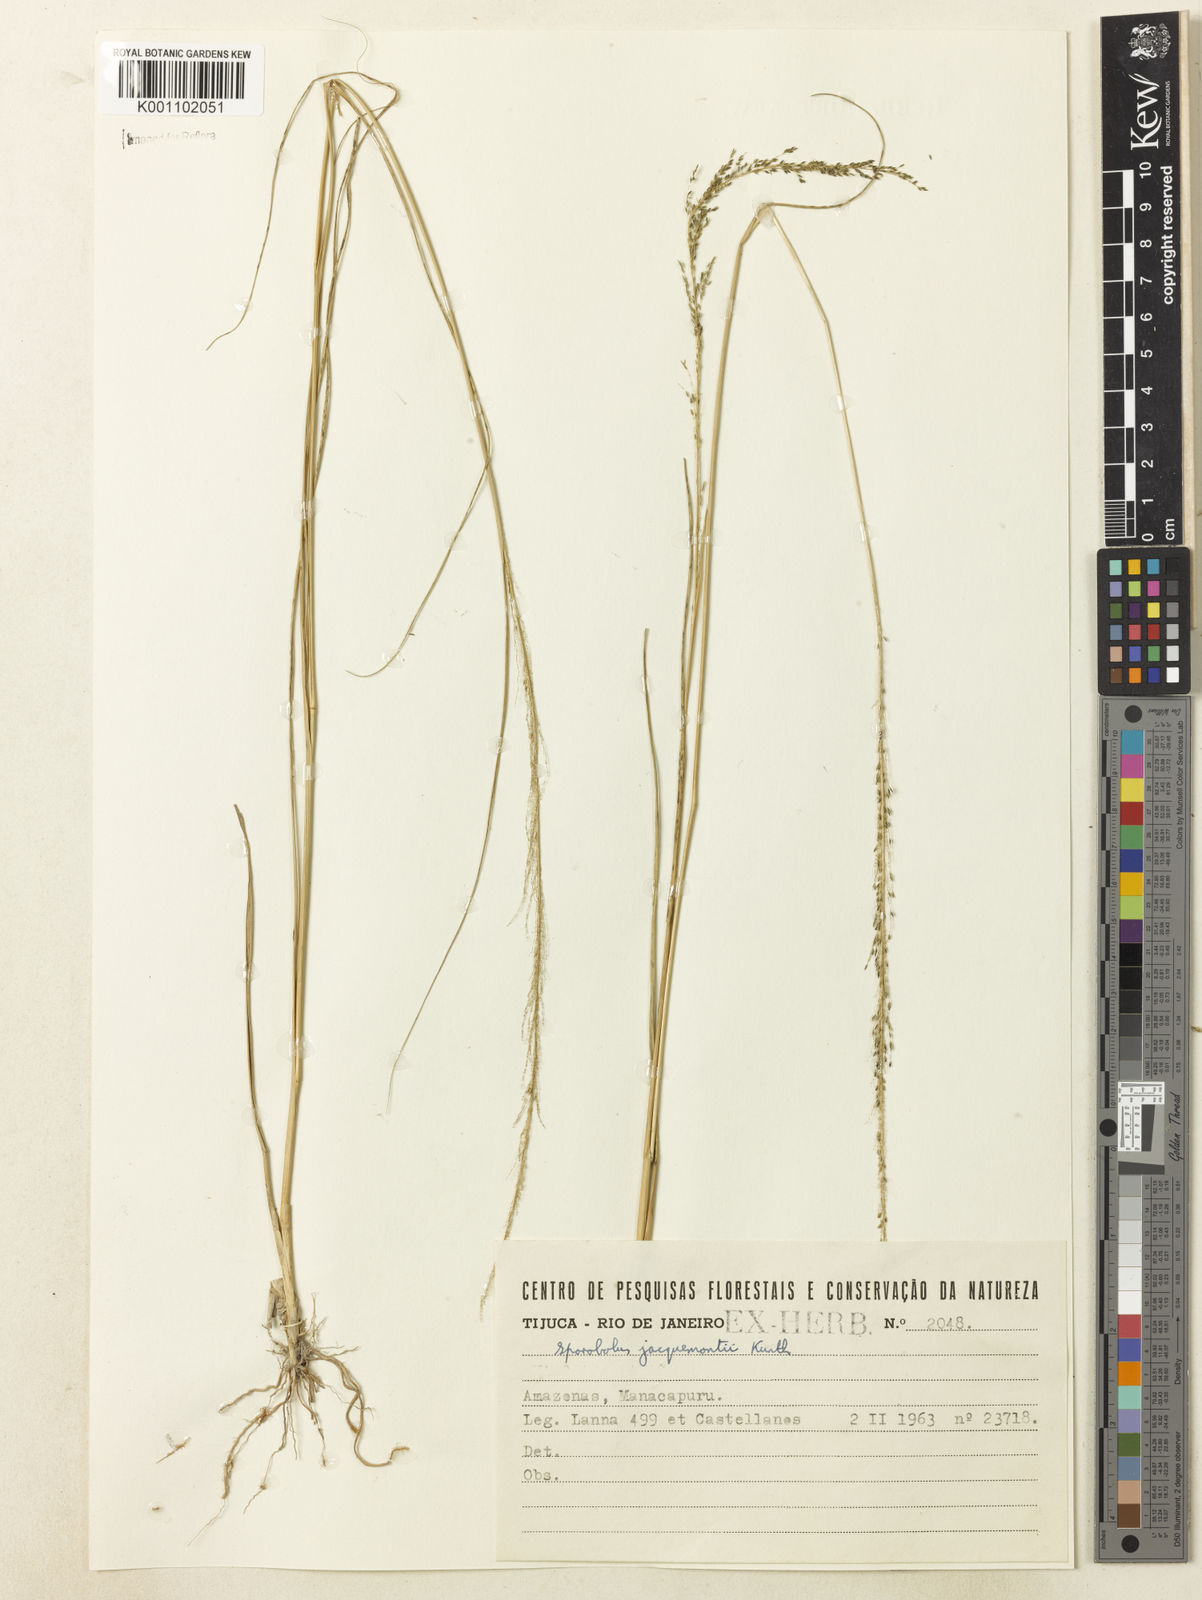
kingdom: Plantae
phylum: Tracheophyta
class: Liliopsida
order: Poales
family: Poaceae
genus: Sporobolus
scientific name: Sporobolus pyramidalis
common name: West indian dropseed
